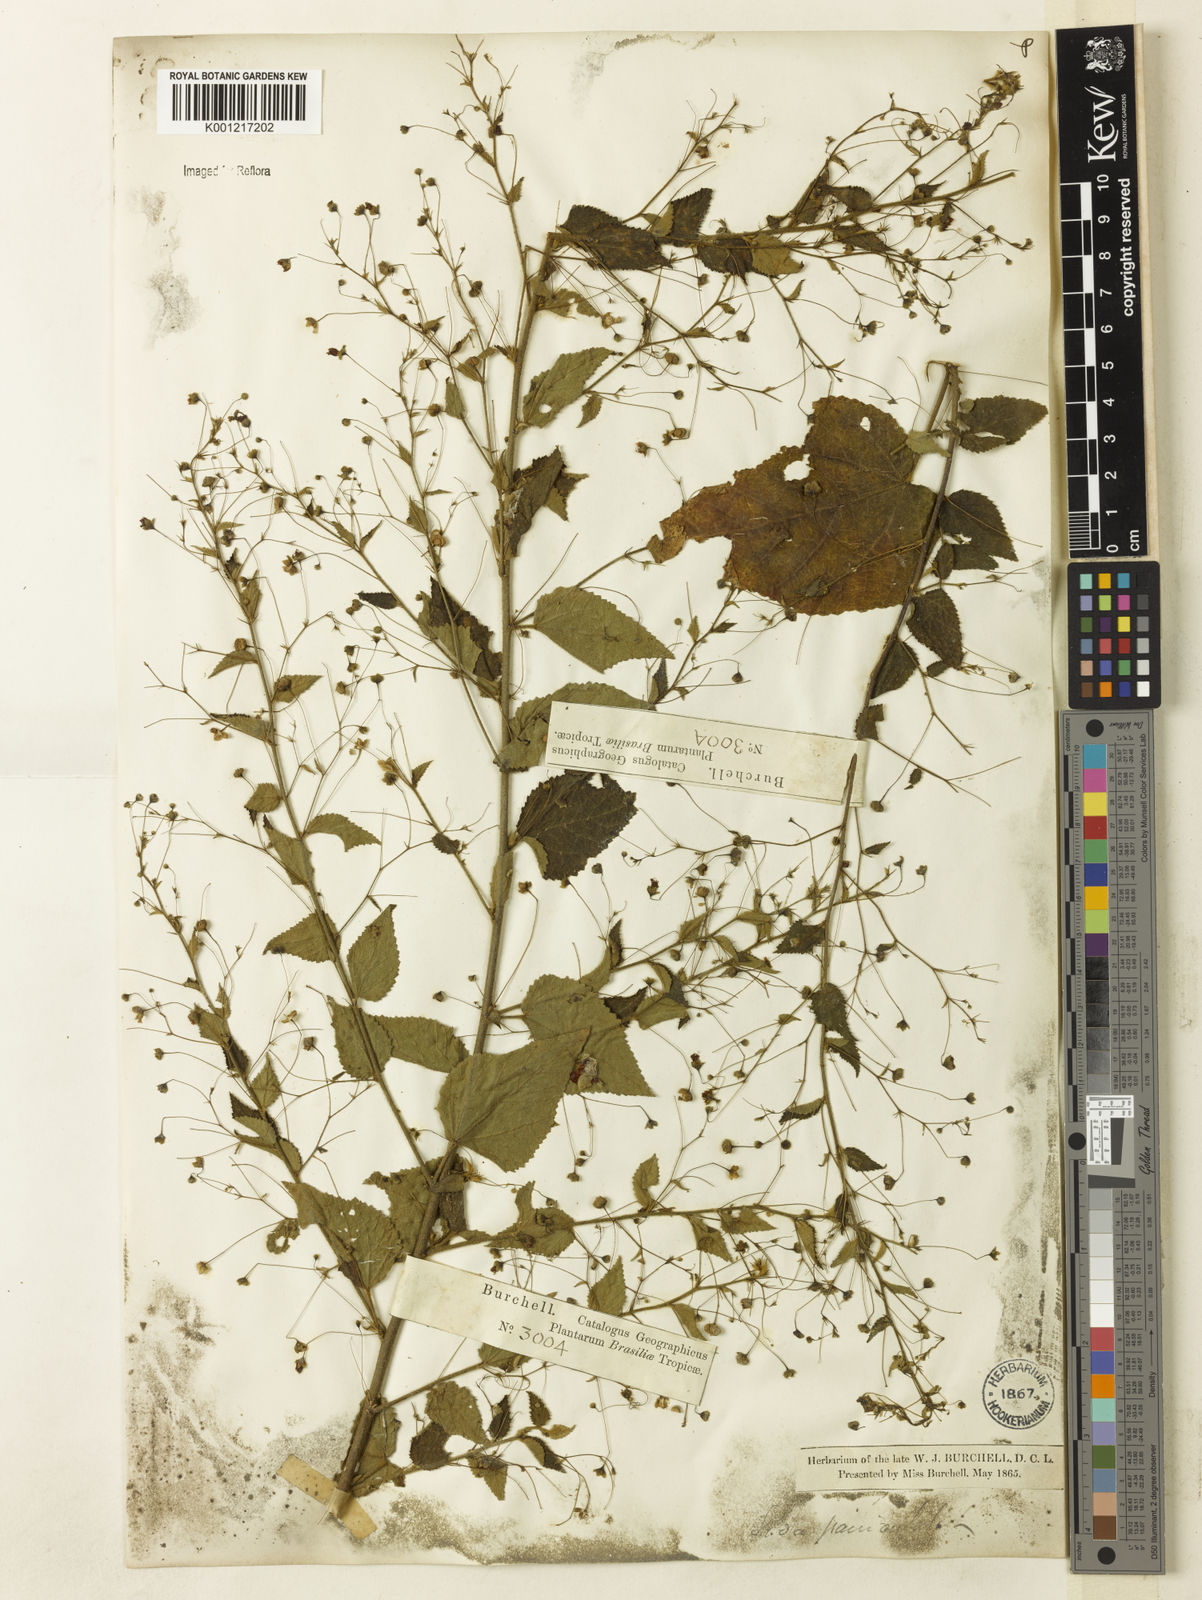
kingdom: Plantae
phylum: Tracheophyta
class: Magnoliopsida
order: Malvales
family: Malvaceae
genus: Sidastrum
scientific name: Sidastrum paniculatum
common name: Panicled sandmallow
